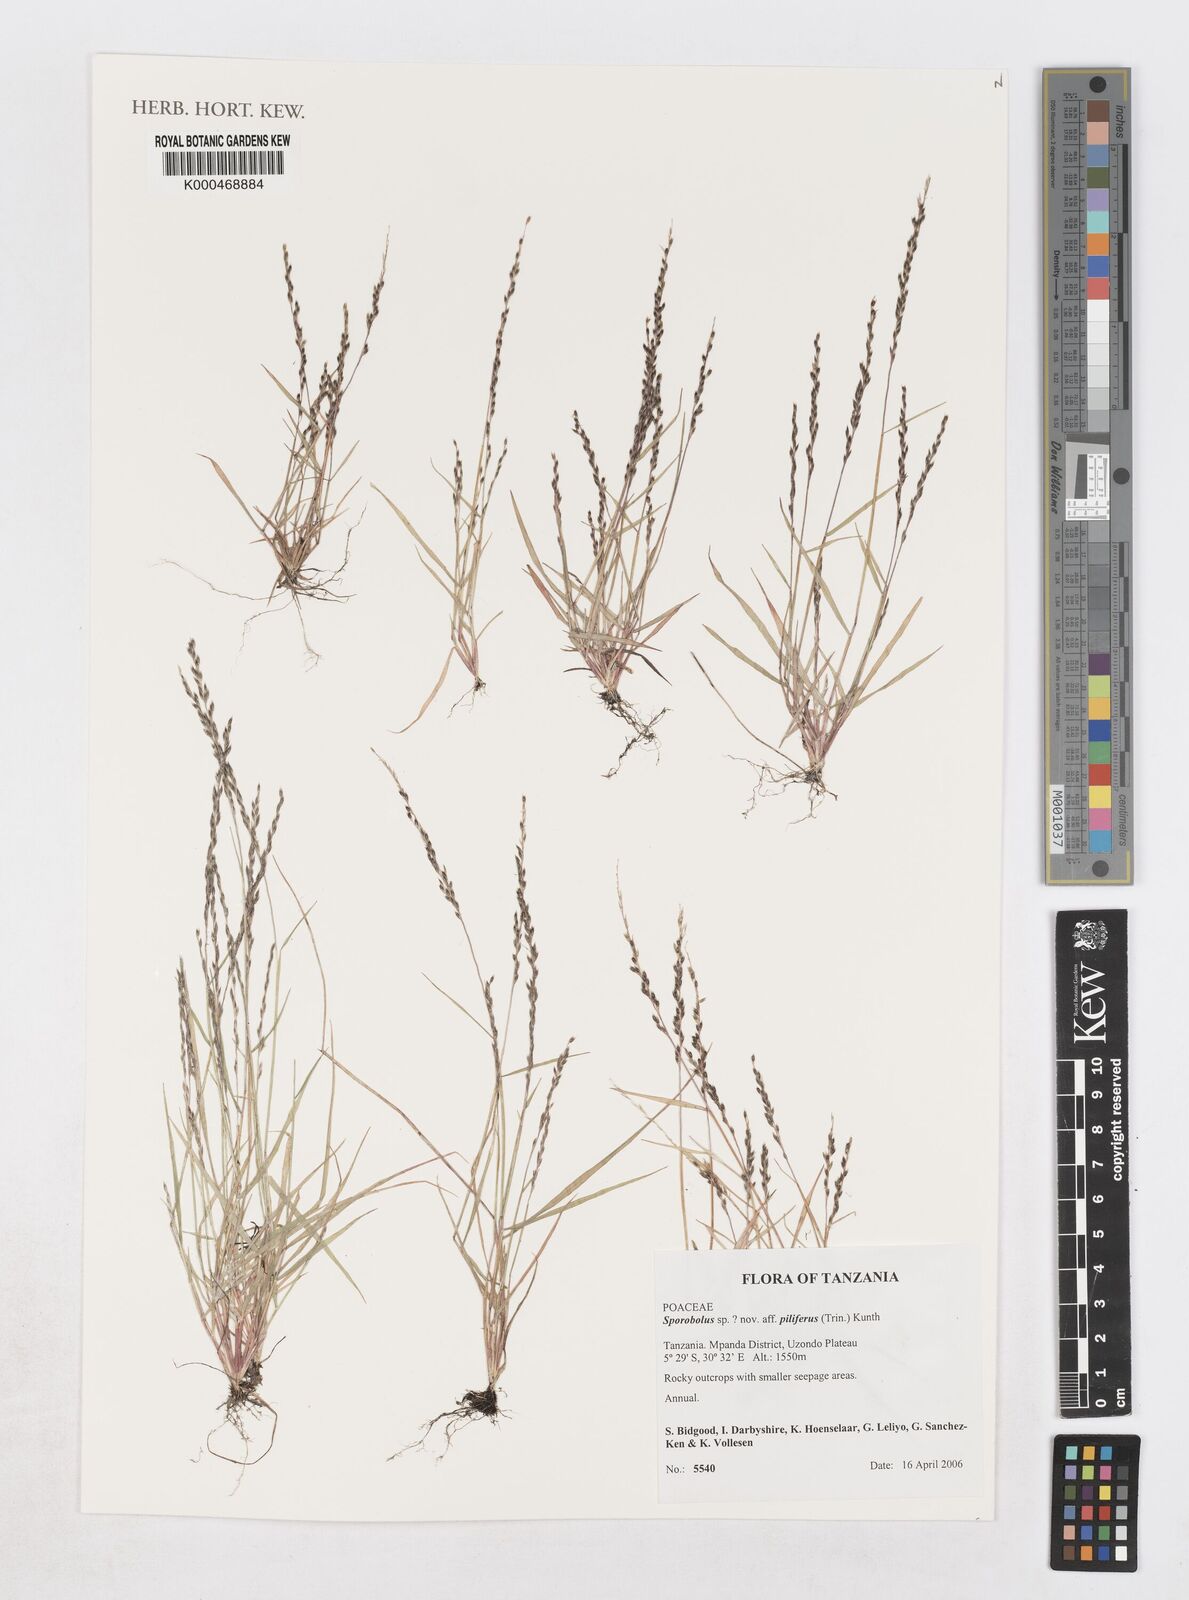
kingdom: Plantae
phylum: Tracheophyta
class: Liliopsida
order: Poales
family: Poaceae
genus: Sporobolus
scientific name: Sporobolus
